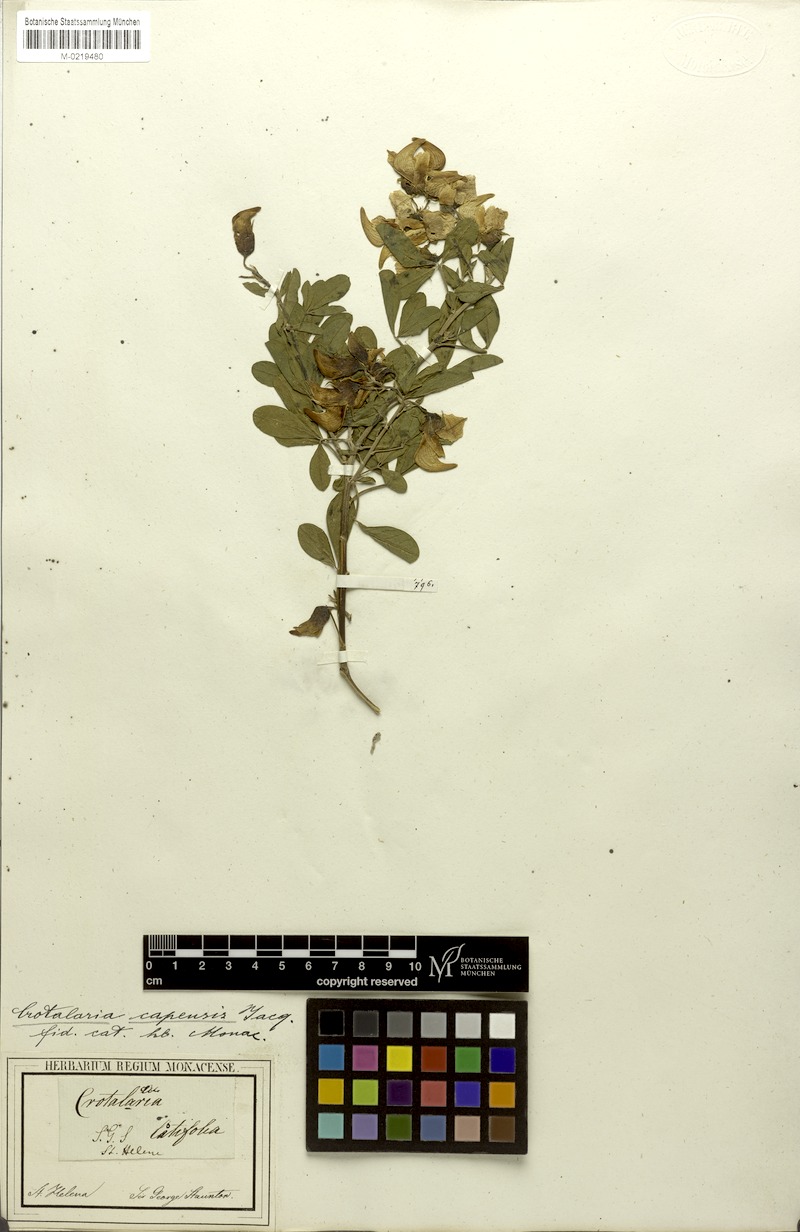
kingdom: Plantae
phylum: Tracheophyta
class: Magnoliopsida
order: Fabales
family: Fabaceae
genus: Crotalaria
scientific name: Crotalaria capensis
